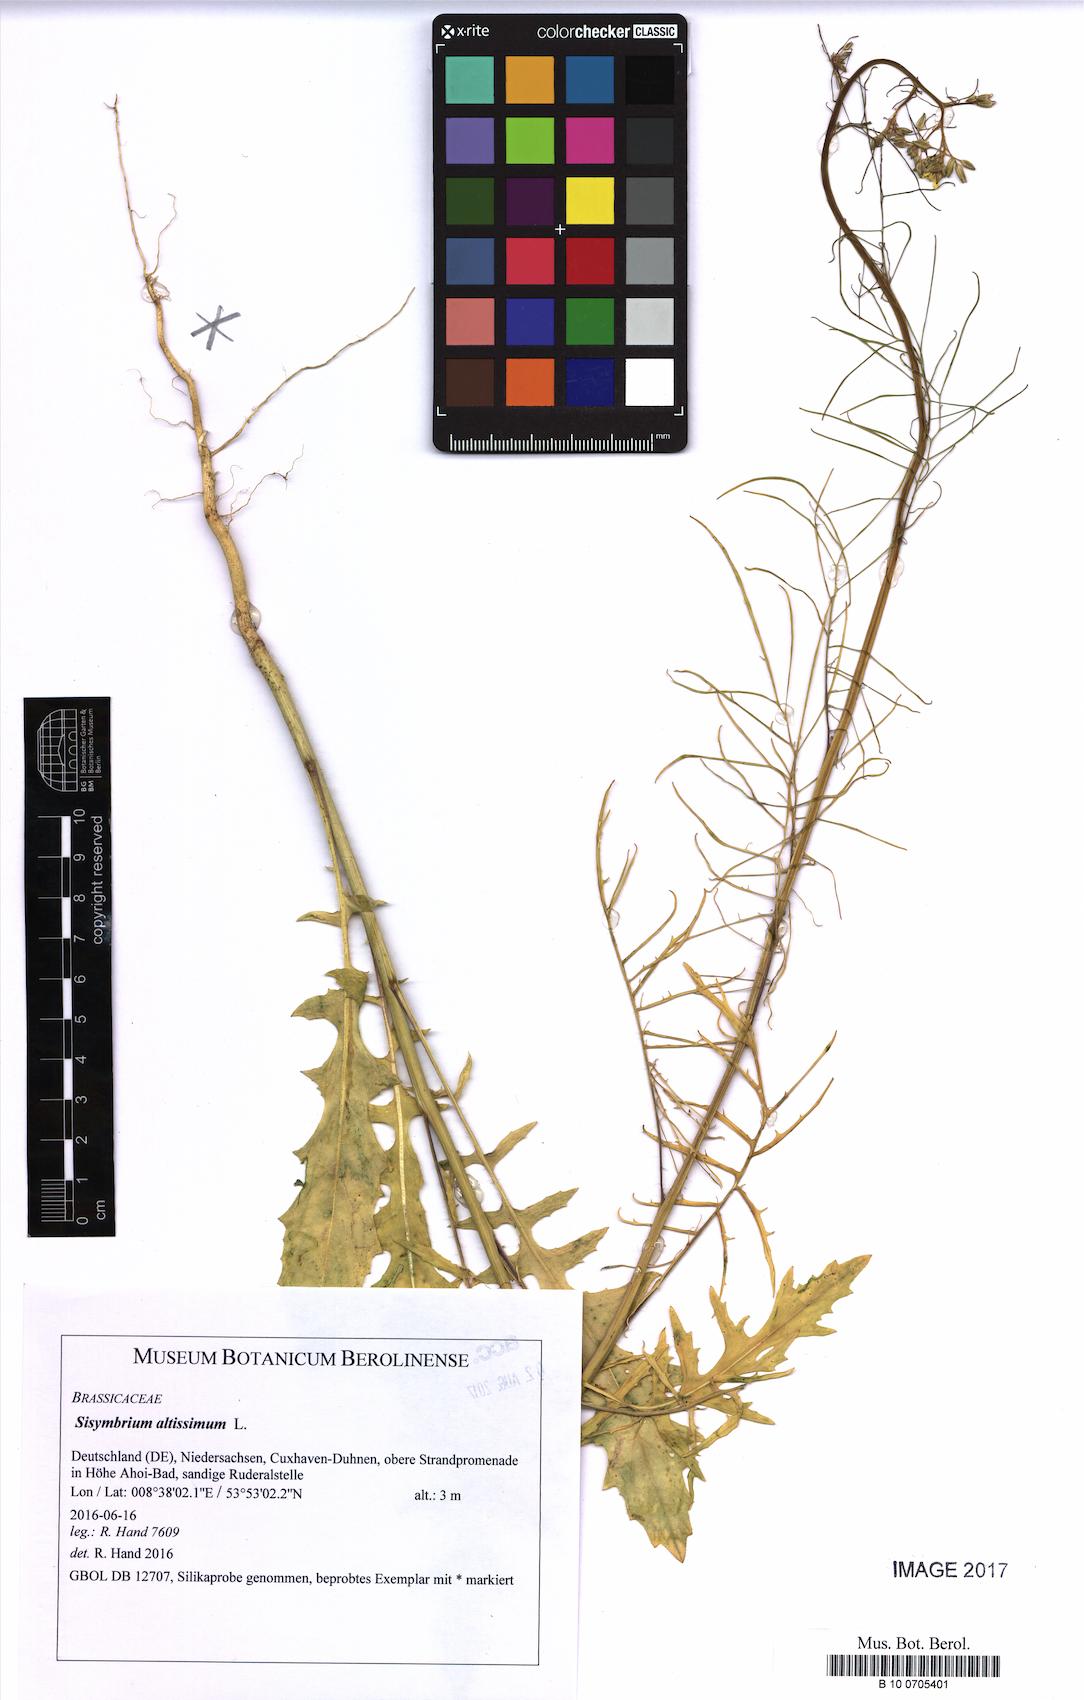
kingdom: Plantae
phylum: Tracheophyta
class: Magnoliopsida
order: Brassicales
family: Brassicaceae
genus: Sisymbrium
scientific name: Sisymbrium altissimum
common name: Tall rocket
